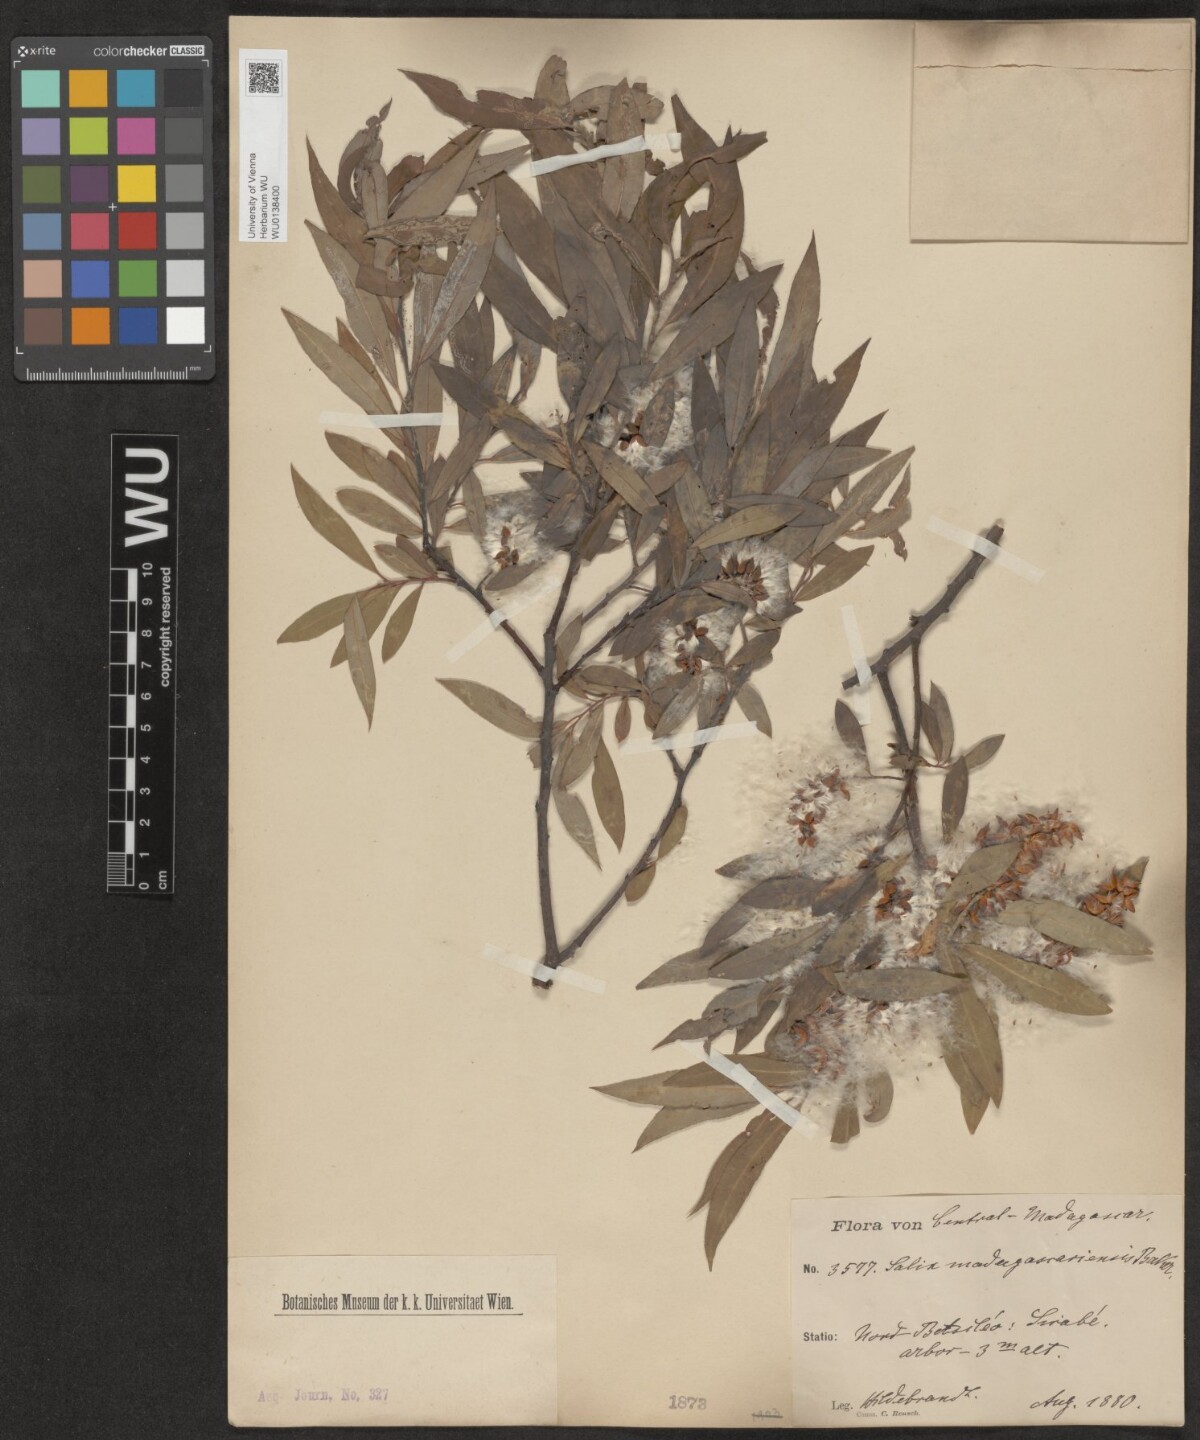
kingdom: Plantae
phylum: Tracheophyta
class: Magnoliopsida
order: Malpighiales
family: Salicaceae
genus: Salix
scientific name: Salix madagascariensis
